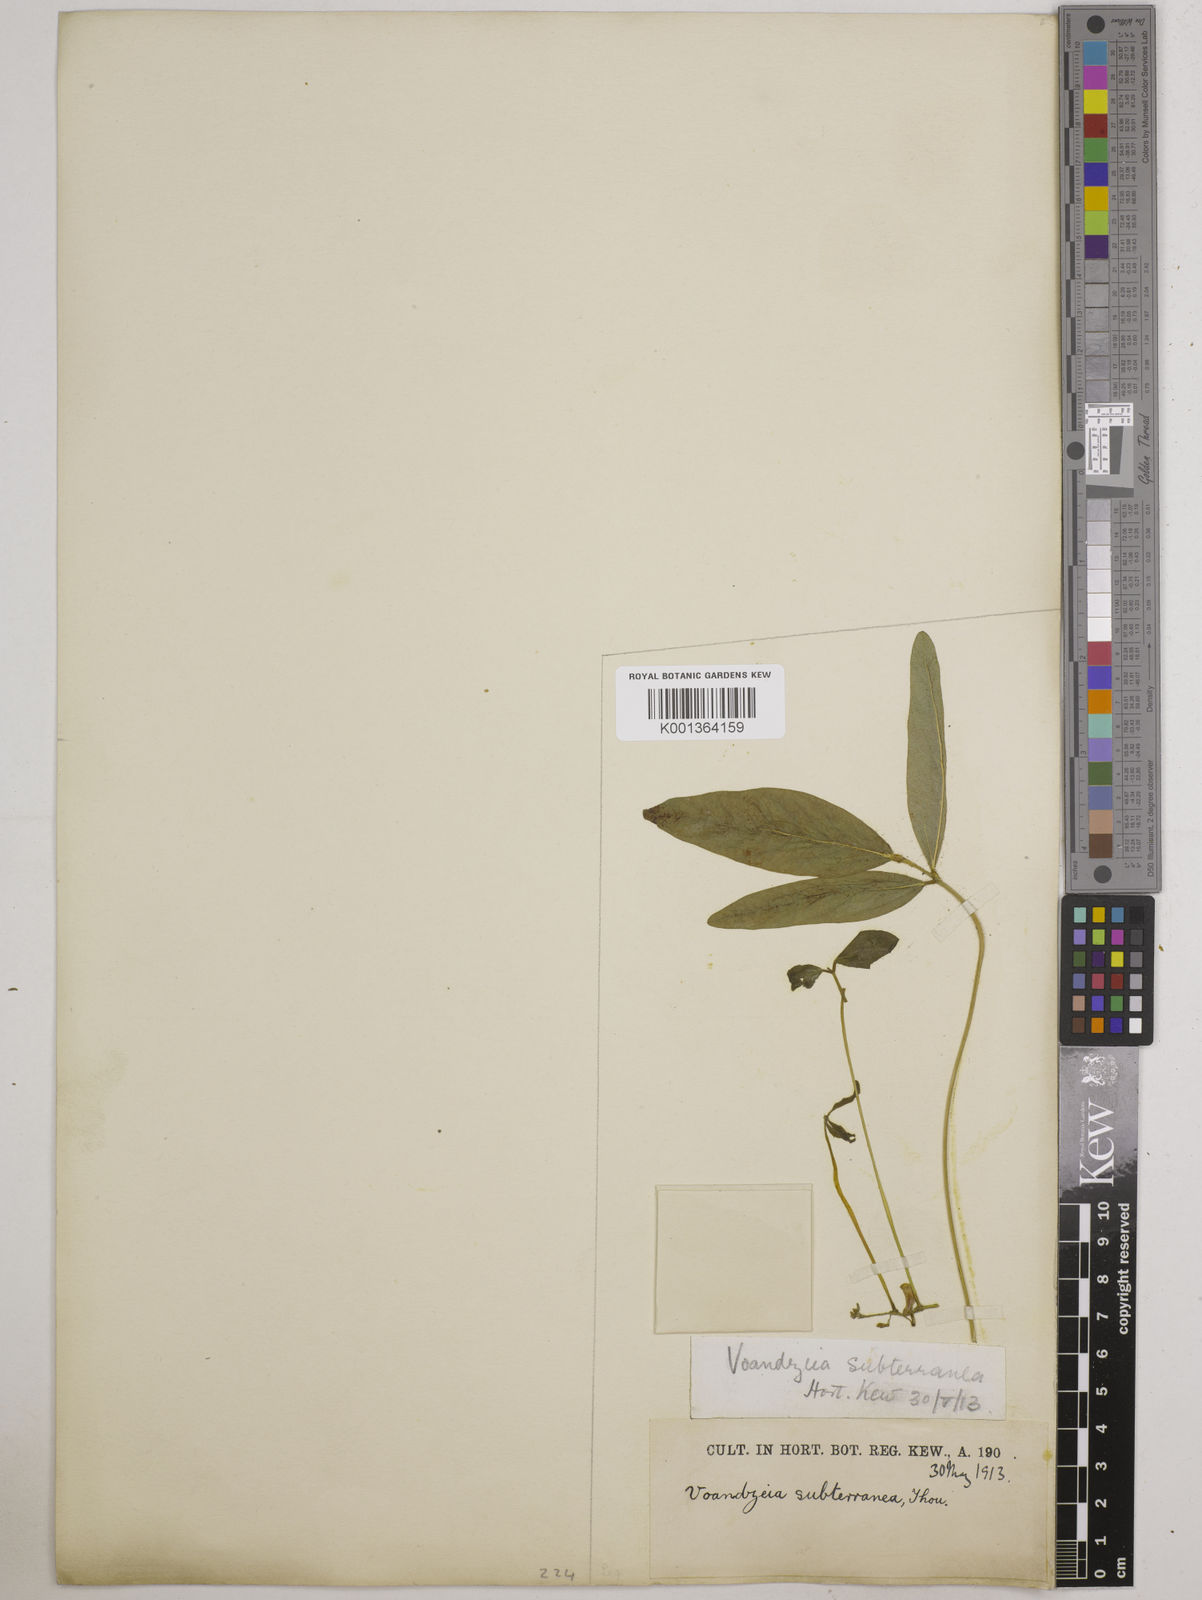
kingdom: Plantae
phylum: Tracheophyta
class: Magnoliopsida
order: Fabales
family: Fabaceae
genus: Vigna
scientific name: Vigna subterranea
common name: Bambara groundnut
